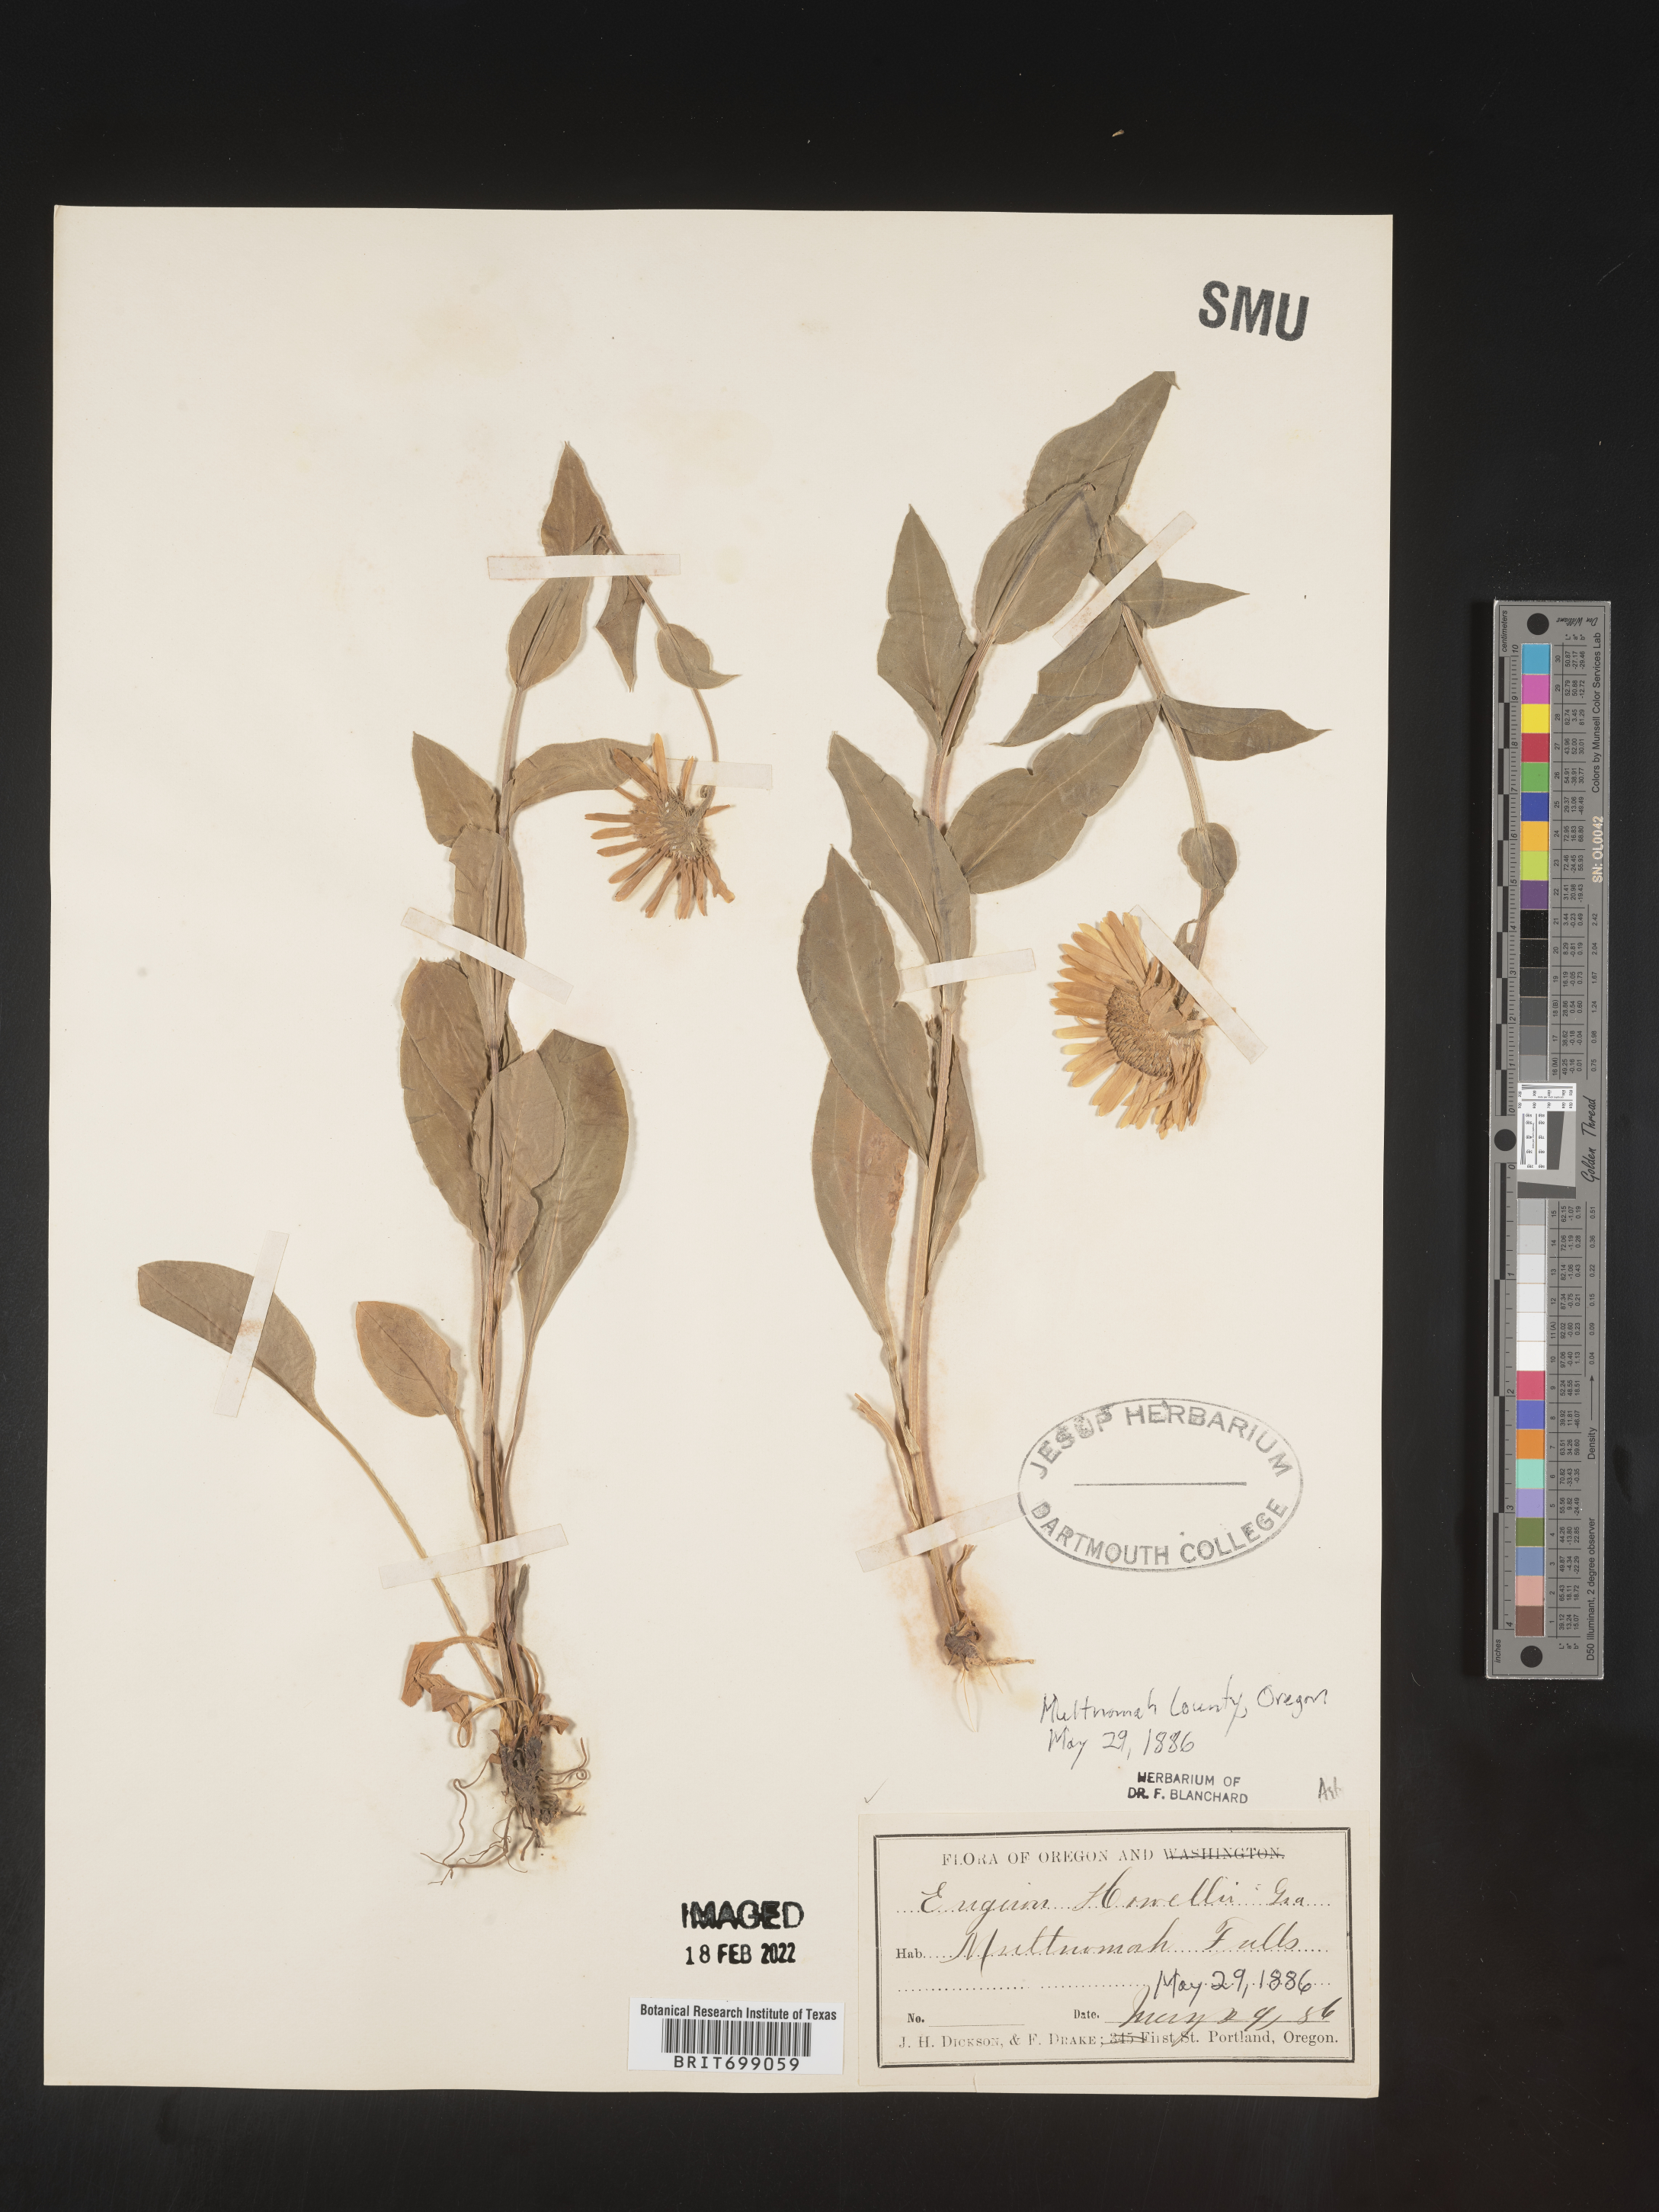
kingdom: Plantae
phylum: Tracheophyta
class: Magnoliopsida
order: Asterales
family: Asteraceae
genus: Erigeron
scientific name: Erigeron howellii
